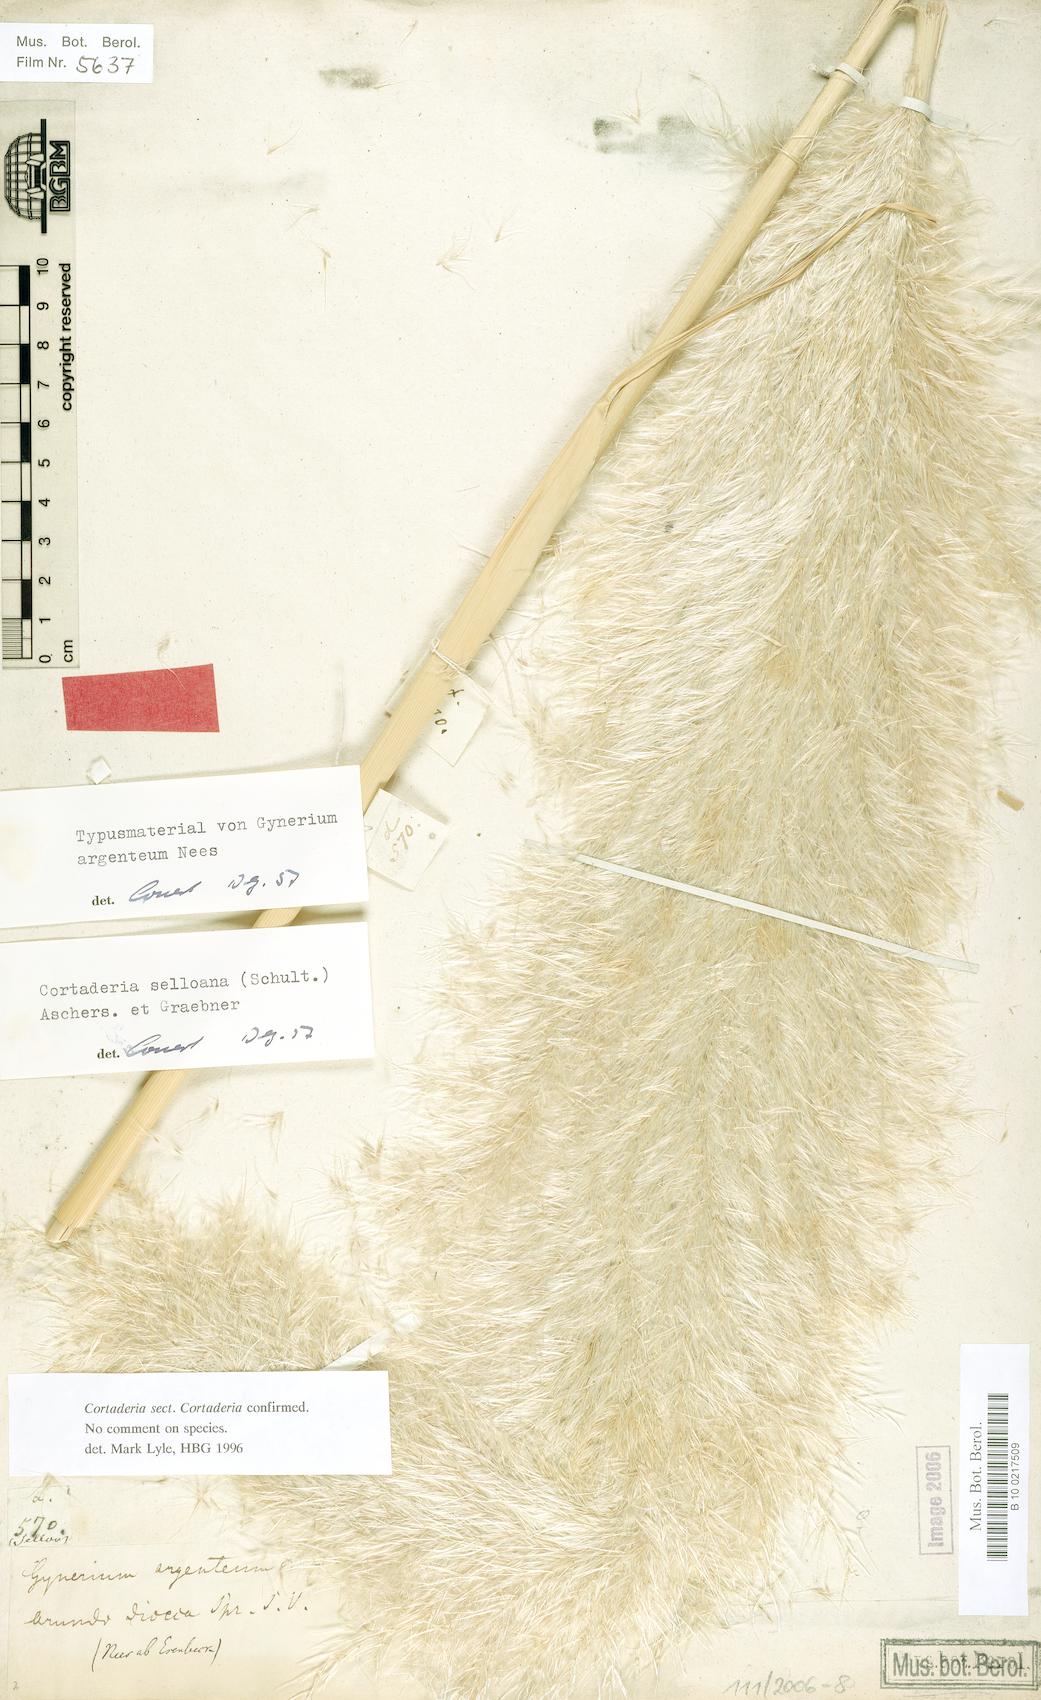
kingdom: Plantae
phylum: Tracheophyta
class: Liliopsida
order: Poales
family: Poaceae
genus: Cortaderia
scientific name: Cortaderia selloana
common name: Uruguayan pampas grass
